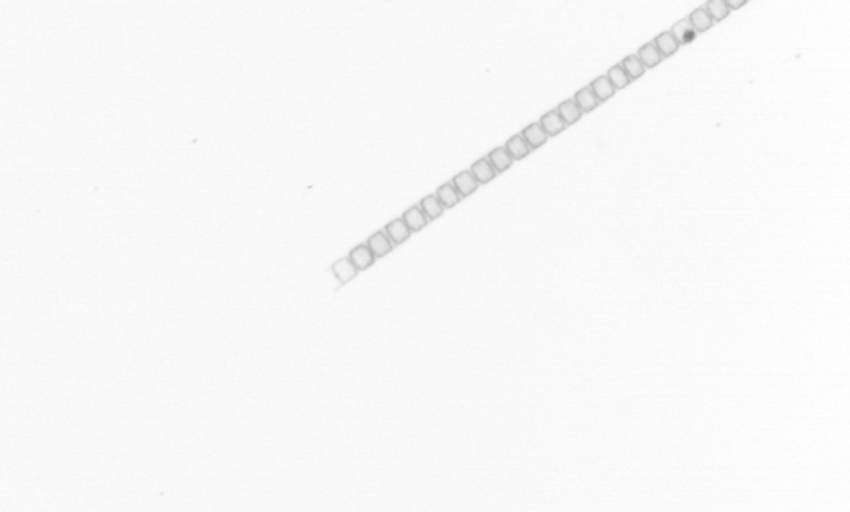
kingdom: Chromista
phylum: Ochrophyta
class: Bacillariophyceae
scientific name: Bacillariophyceae
